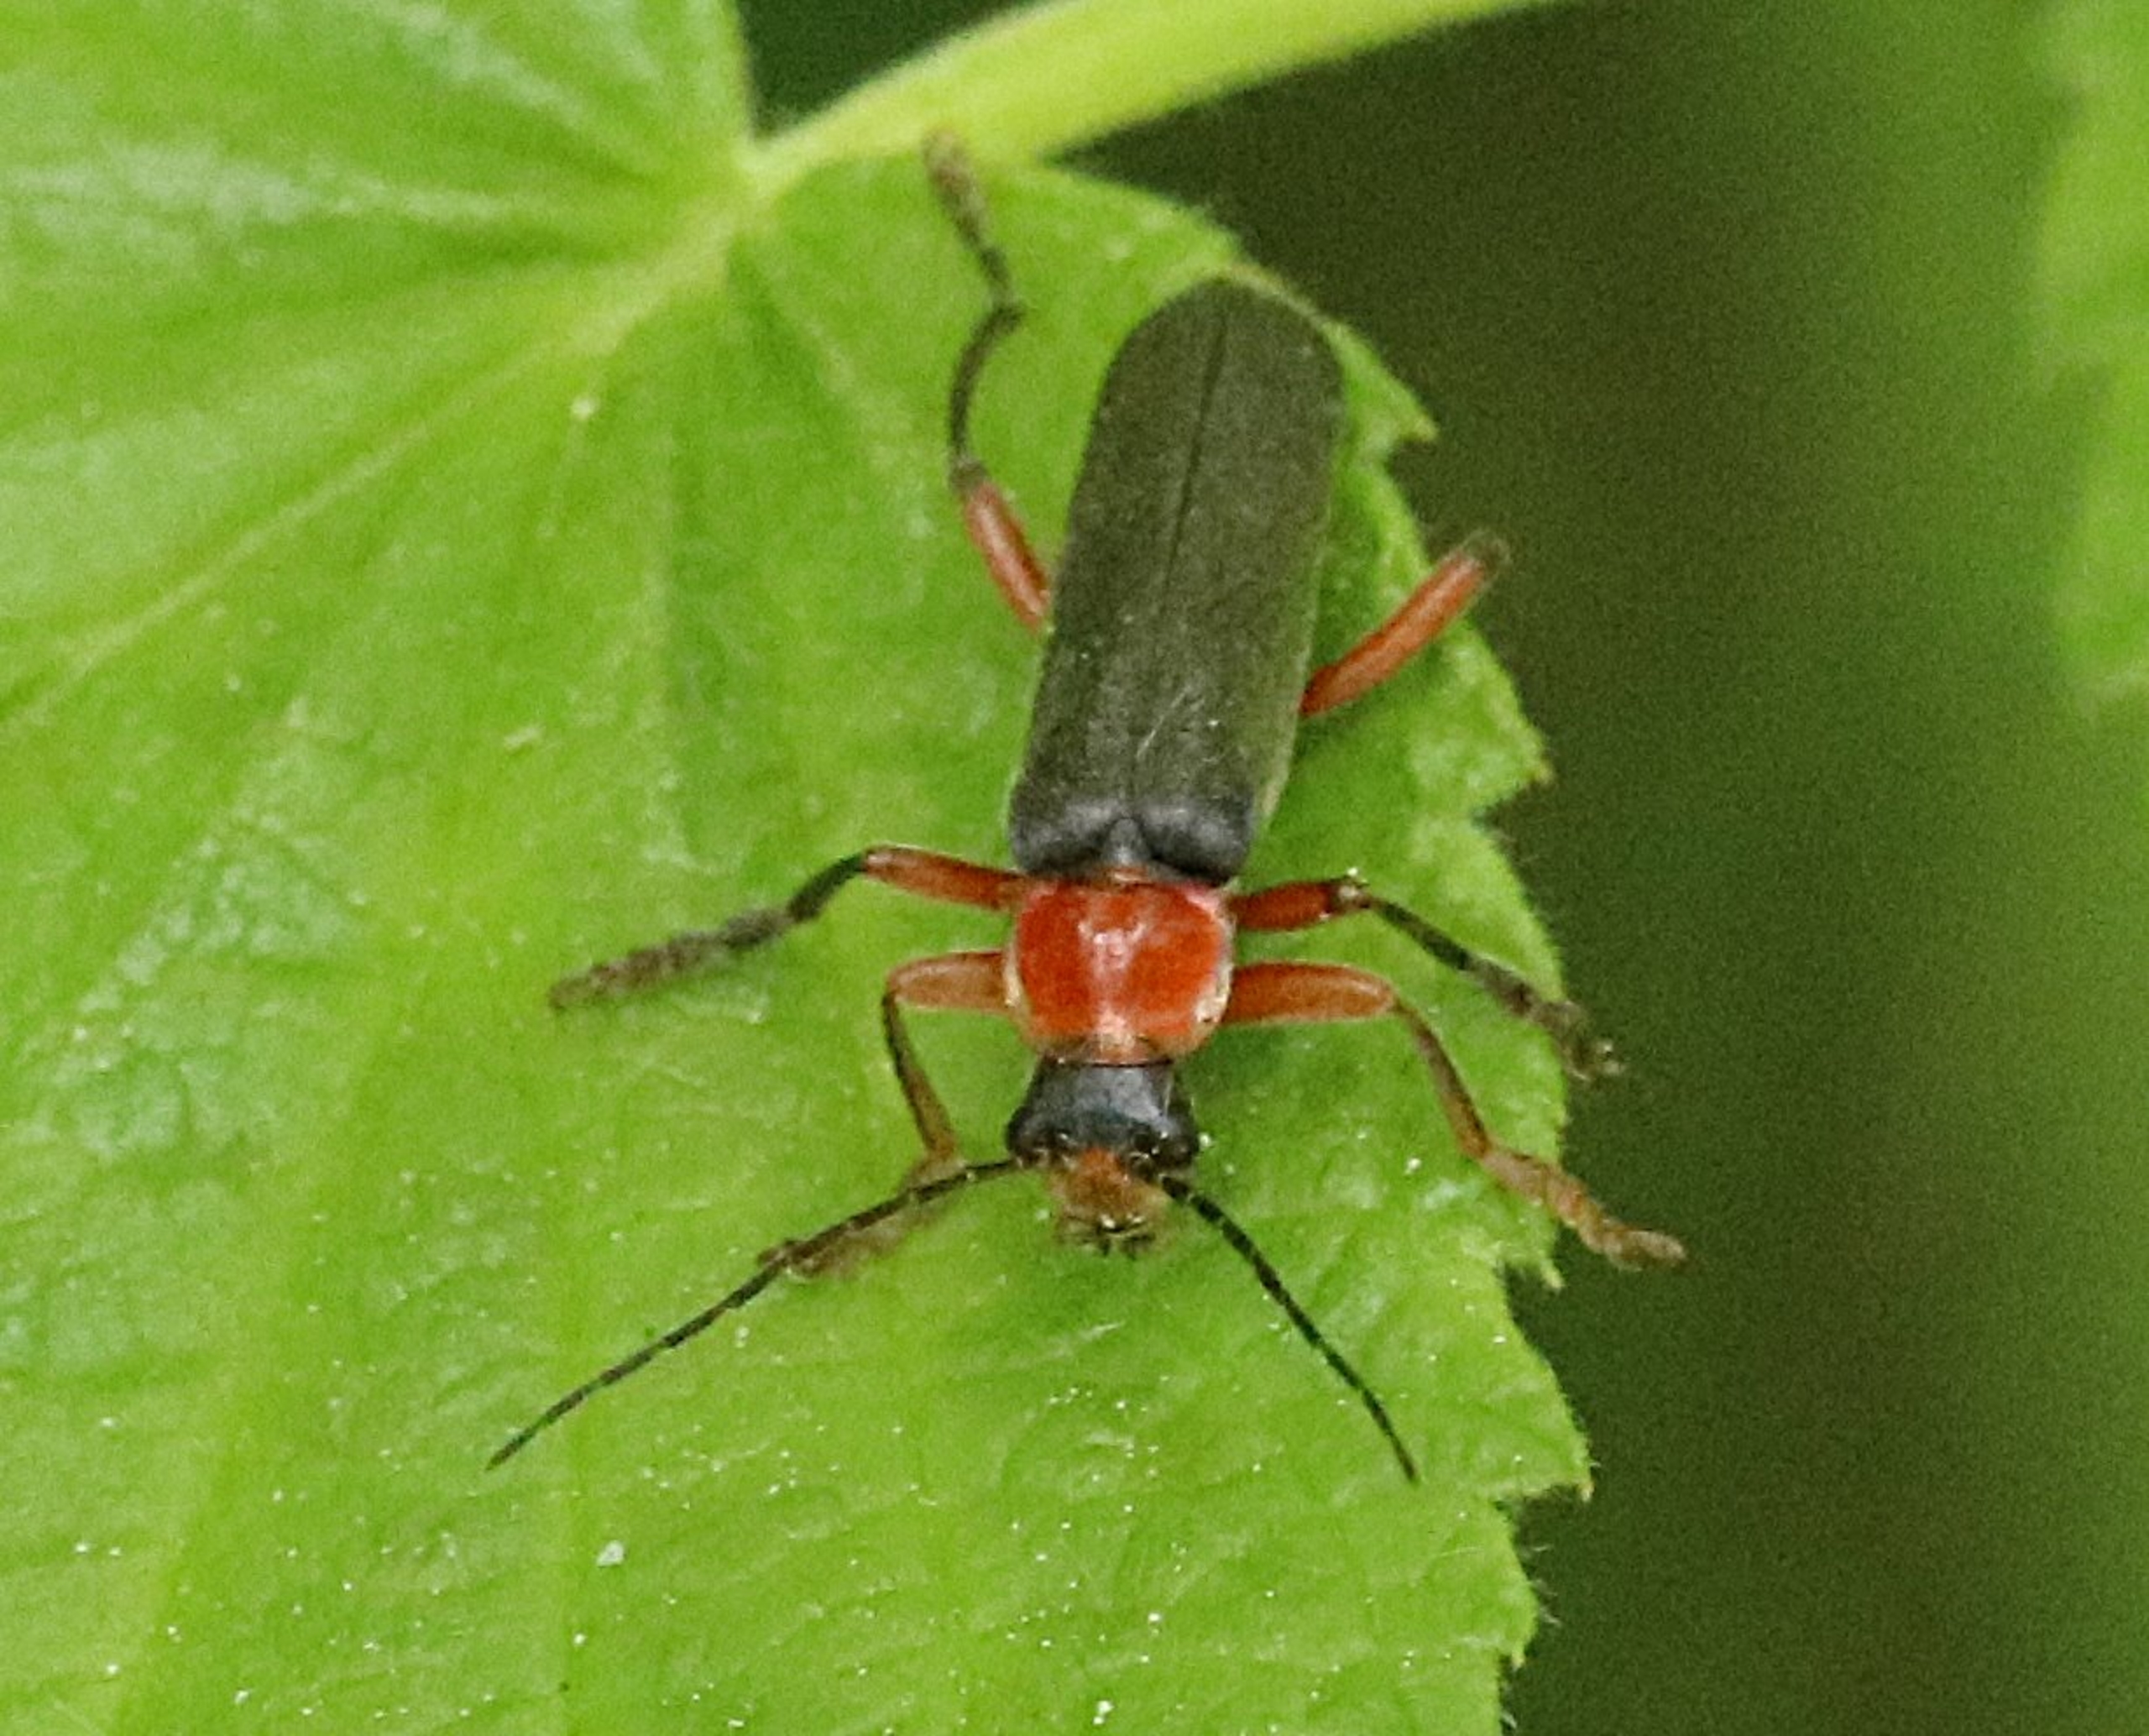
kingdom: Animalia
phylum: Arthropoda
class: Insecta
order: Coleoptera
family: Cantharidae
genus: Cantharis
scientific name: Cantharis pellucida
